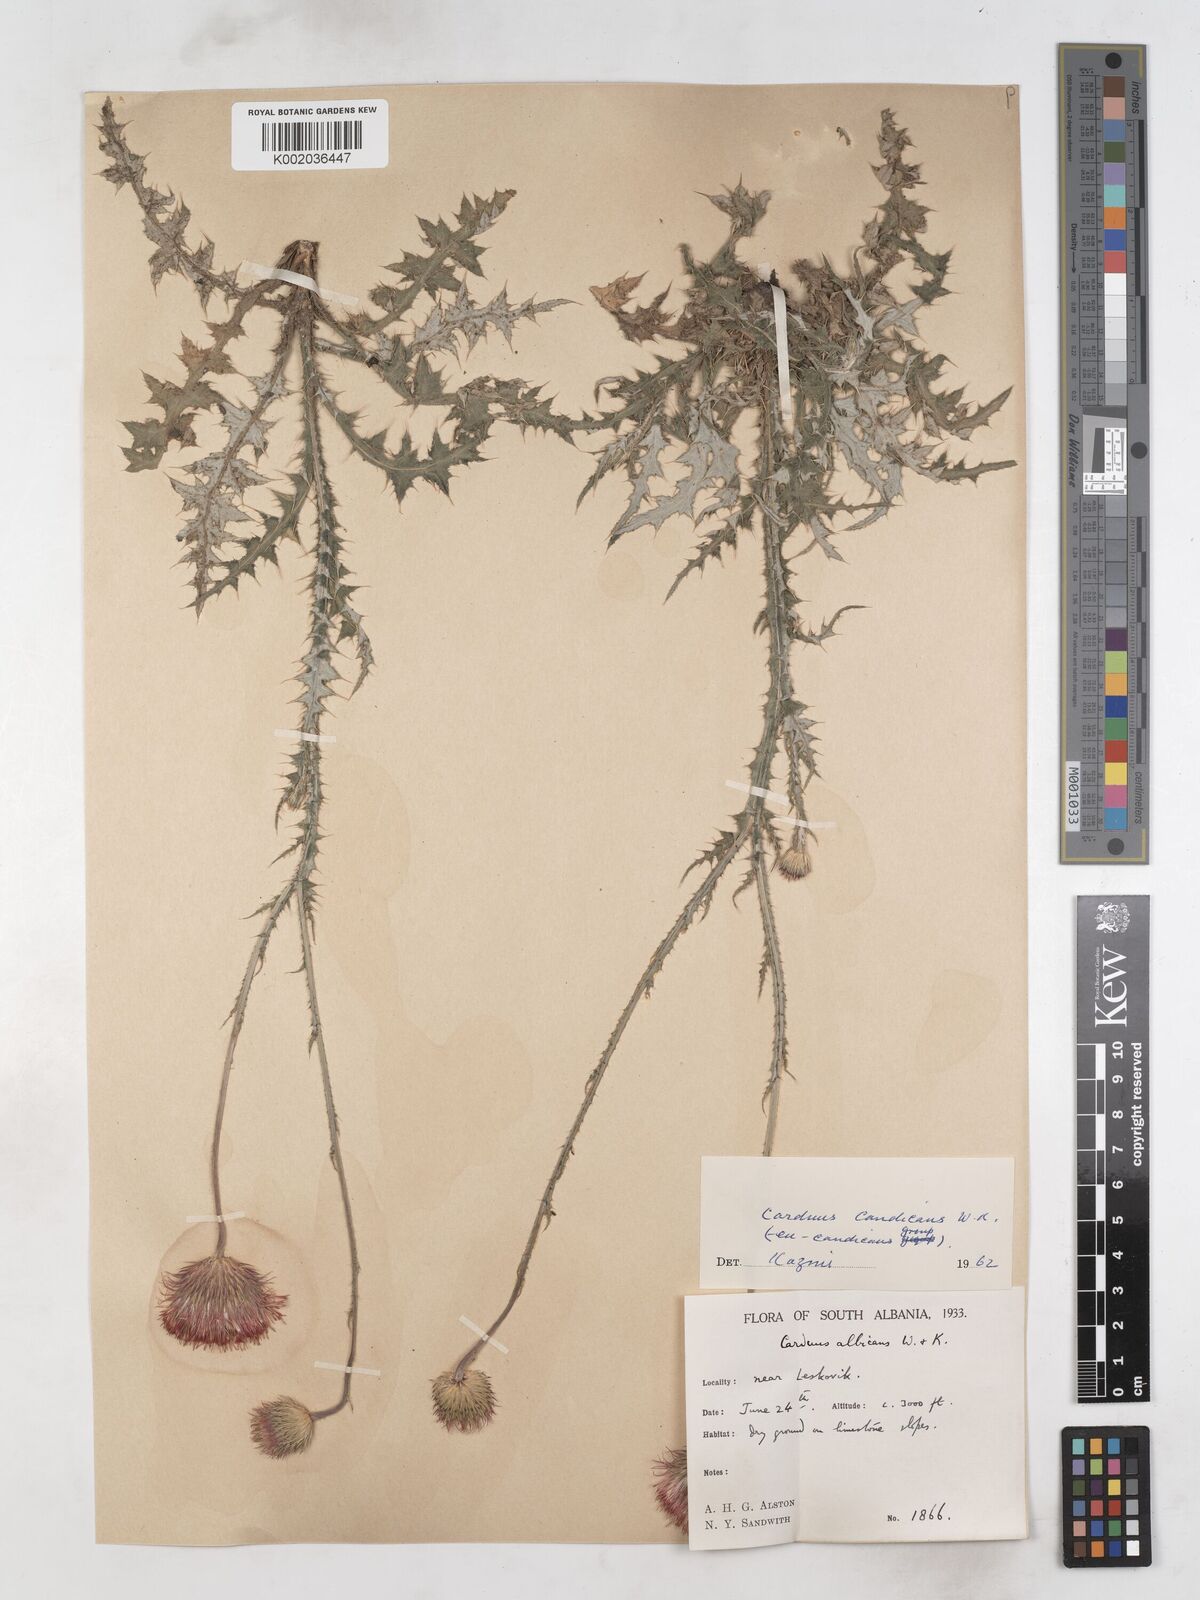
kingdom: Plantae
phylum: Tracheophyta
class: Magnoliopsida
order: Asterales
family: Asteraceae
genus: Carduus
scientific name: Carduus candicans
